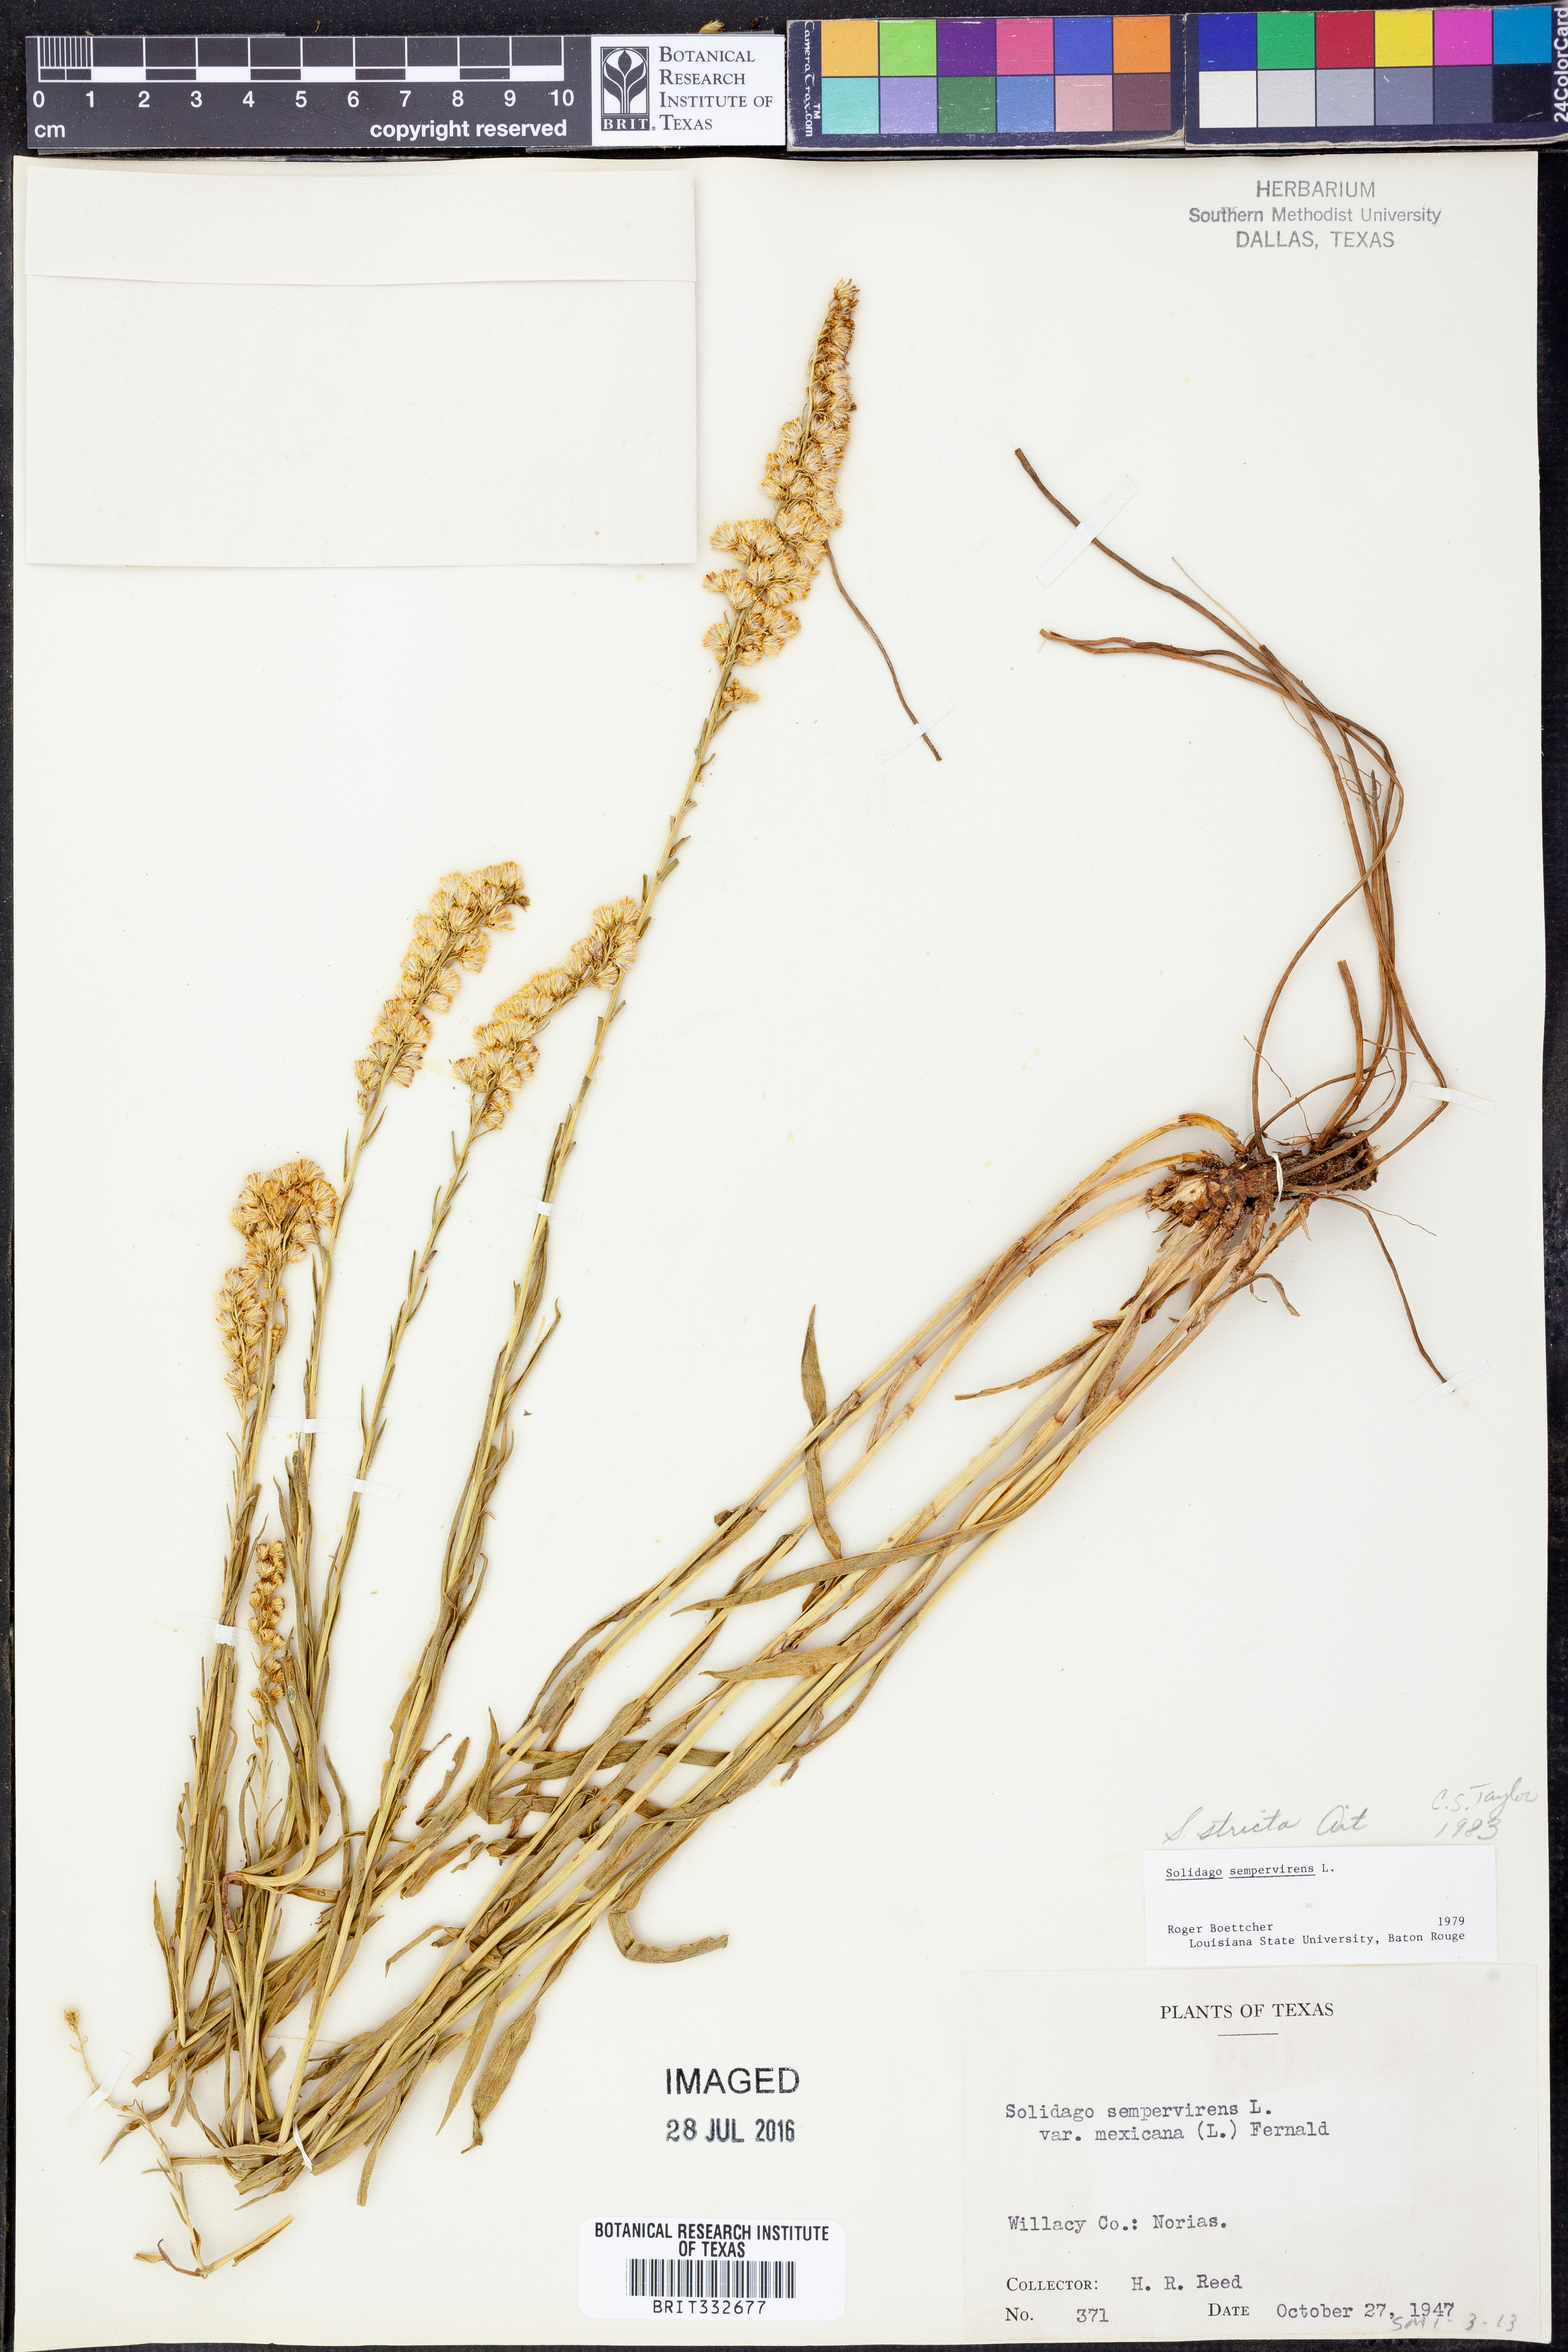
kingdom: Plantae
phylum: Tracheophyta
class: Magnoliopsida
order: Asterales
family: Asteraceae
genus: Solidago
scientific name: Solidago stricta
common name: Pine barren bog goldenrod
